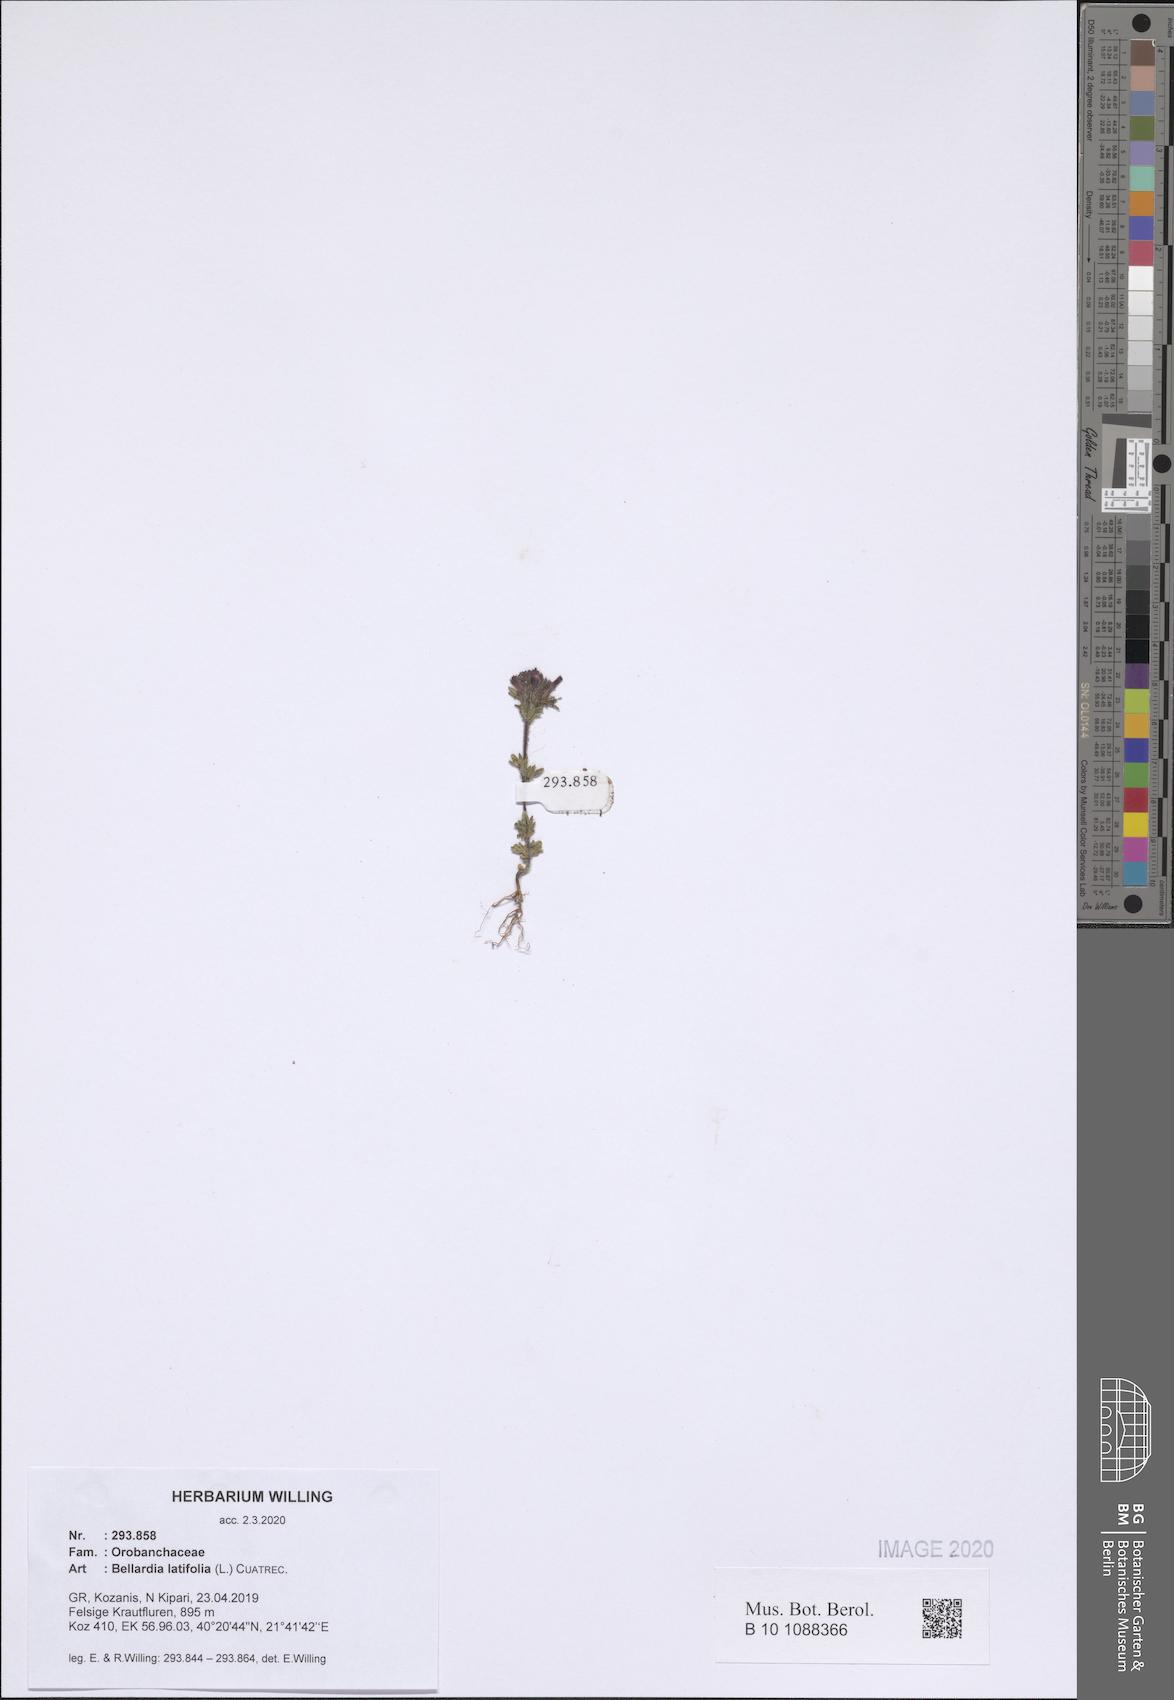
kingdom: Plantae
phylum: Tracheophyta
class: Magnoliopsida
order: Lamiales
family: Orobanchaceae
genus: Parentucellia
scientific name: Parentucellia latifolia
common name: Broadleaf glandweed
